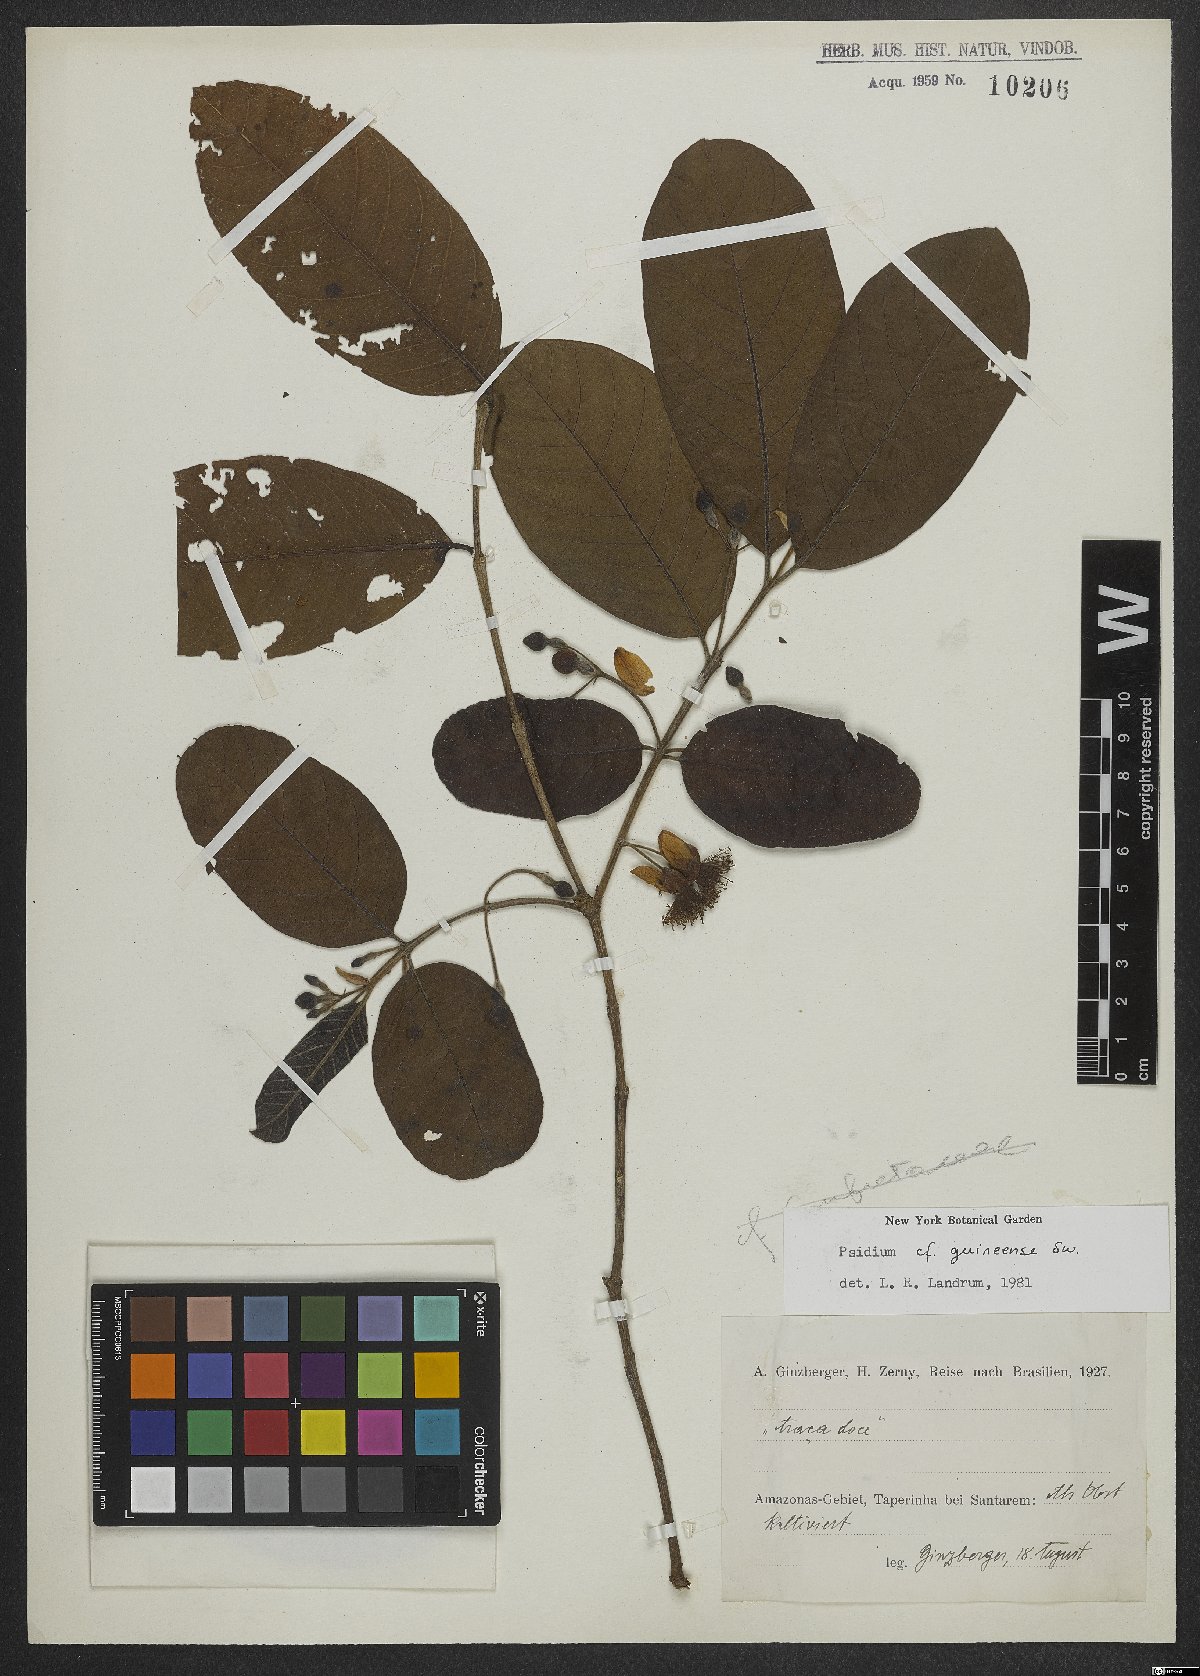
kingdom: Plantae
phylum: Tracheophyta
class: Magnoliopsida
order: Myrtales
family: Myrtaceae
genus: Psidium
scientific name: Psidium guineense
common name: Brazilian guava
